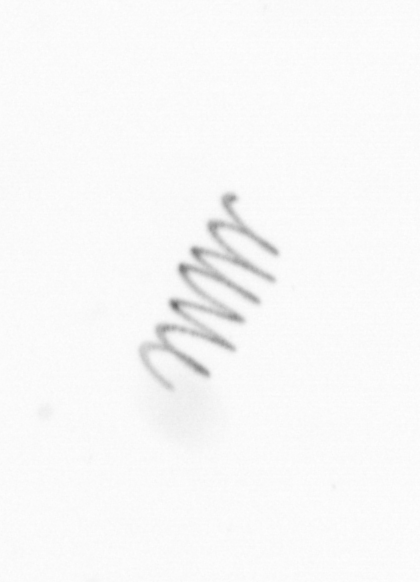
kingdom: Chromista
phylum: Ochrophyta
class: Bacillariophyceae
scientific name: Bacillariophyceae
